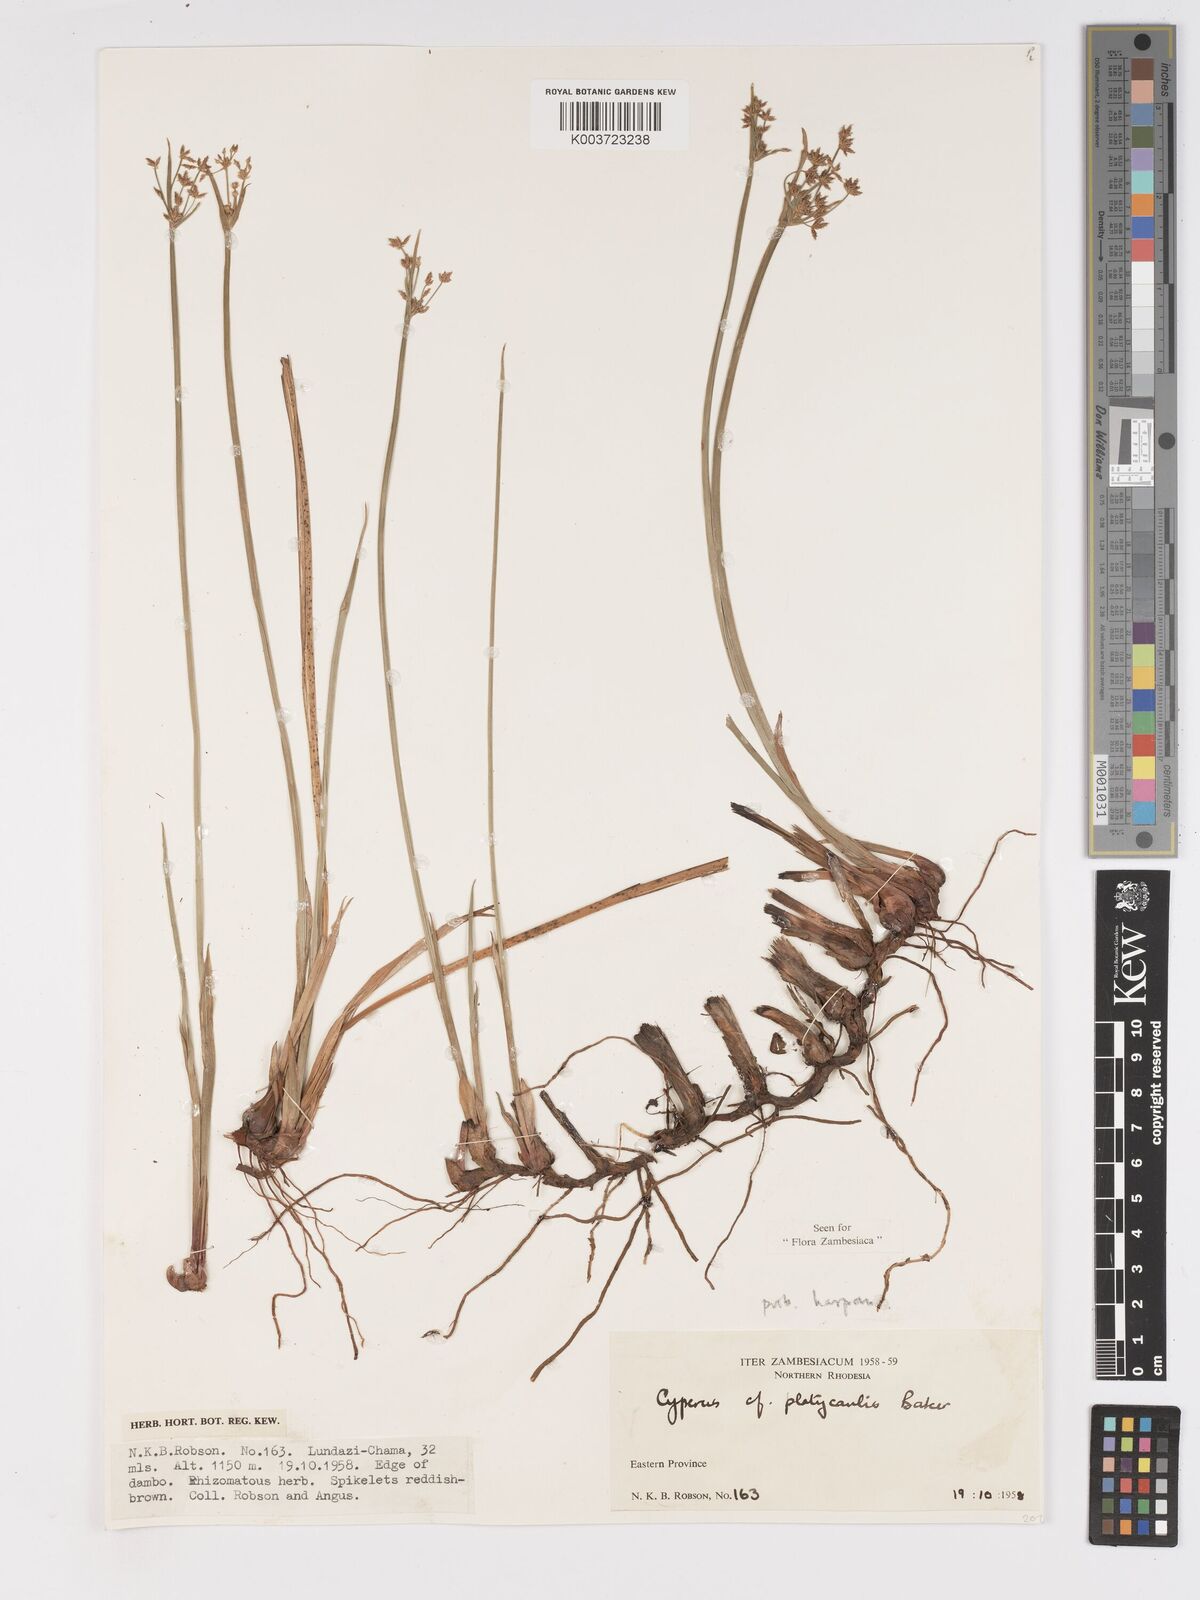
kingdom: Plantae
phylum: Tracheophyta
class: Liliopsida
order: Poales
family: Cyperaceae
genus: Cyperus
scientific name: Cyperus platycaulis
